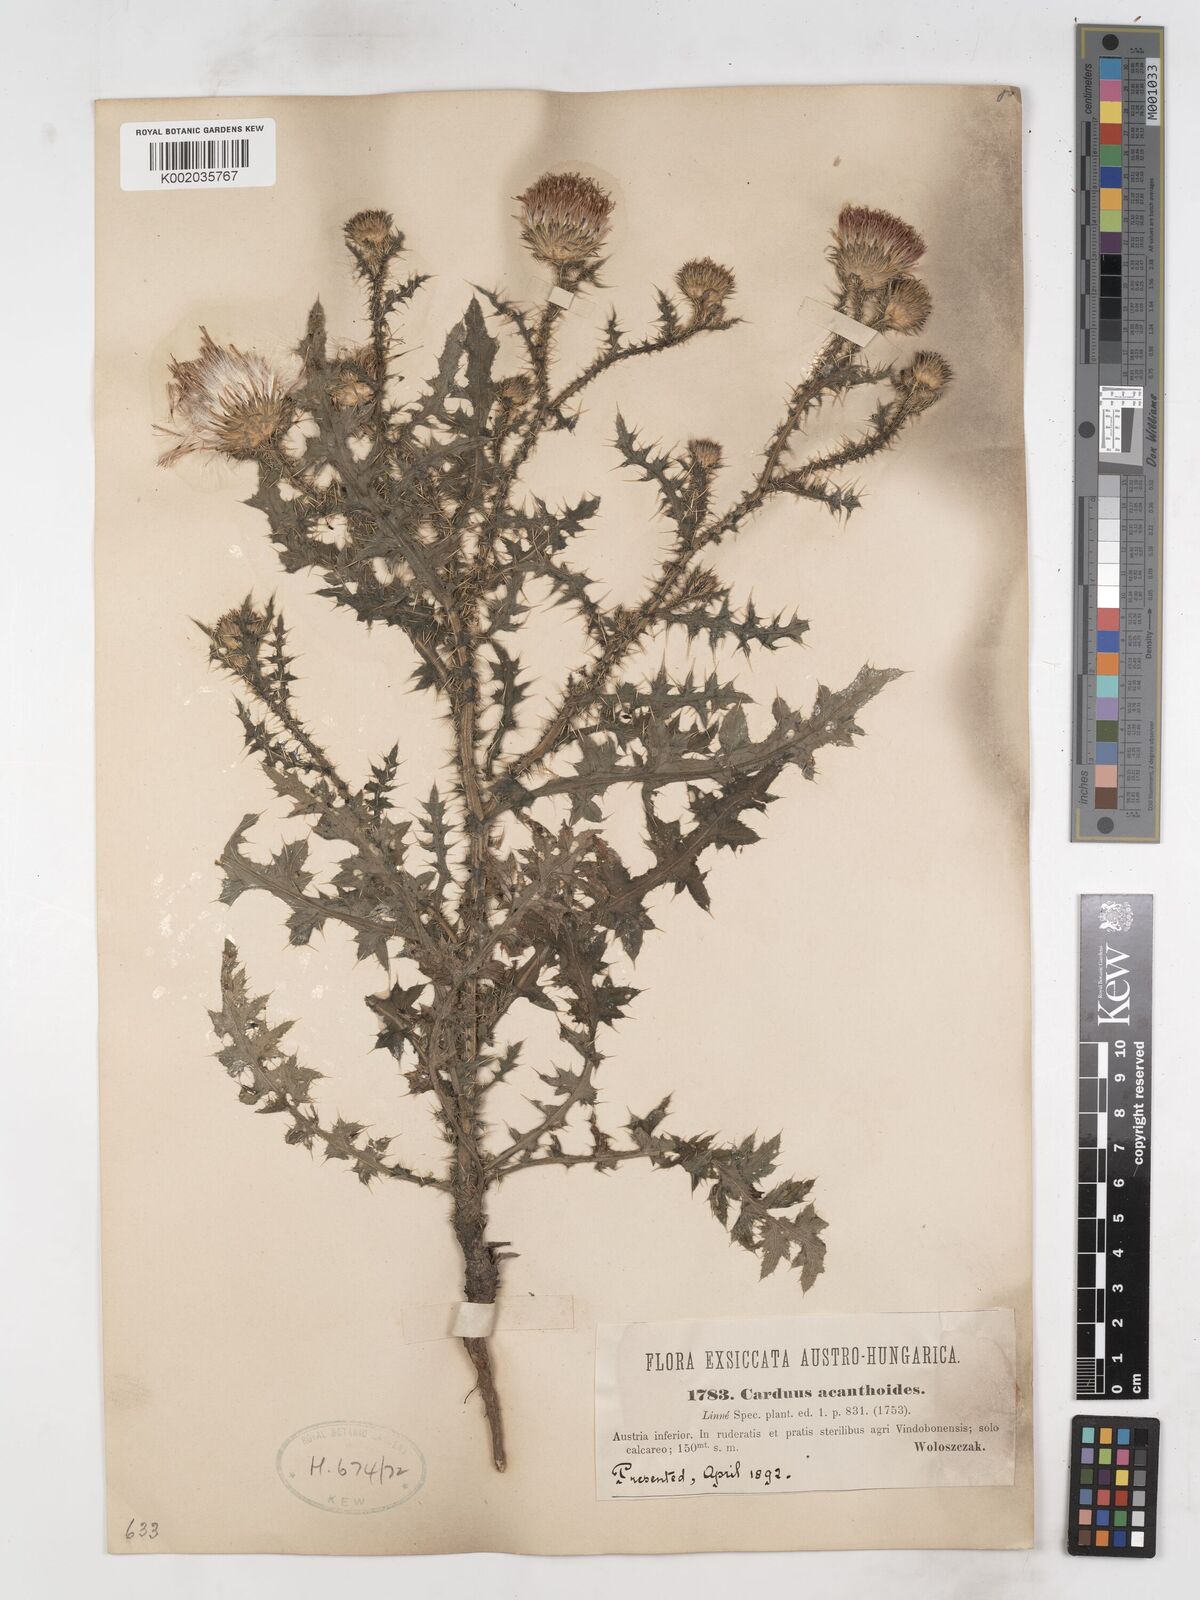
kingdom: Plantae
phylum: Tracheophyta
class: Magnoliopsida
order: Asterales
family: Asteraceae
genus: Carduus
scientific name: Carduus acanthoides
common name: Plumeless thistle
